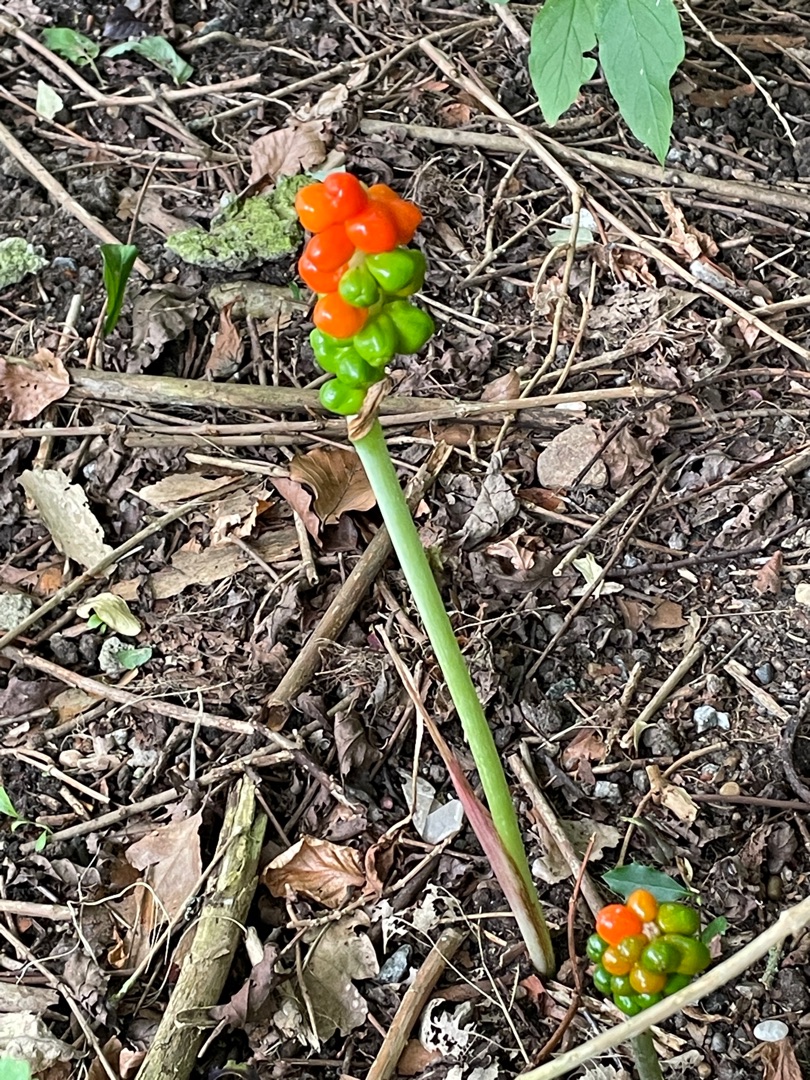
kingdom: Plantae
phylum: Tracheophyta
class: Liliopsida
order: Alismatales
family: Araceae
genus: Arum
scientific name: Arum
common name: Arumslægten
